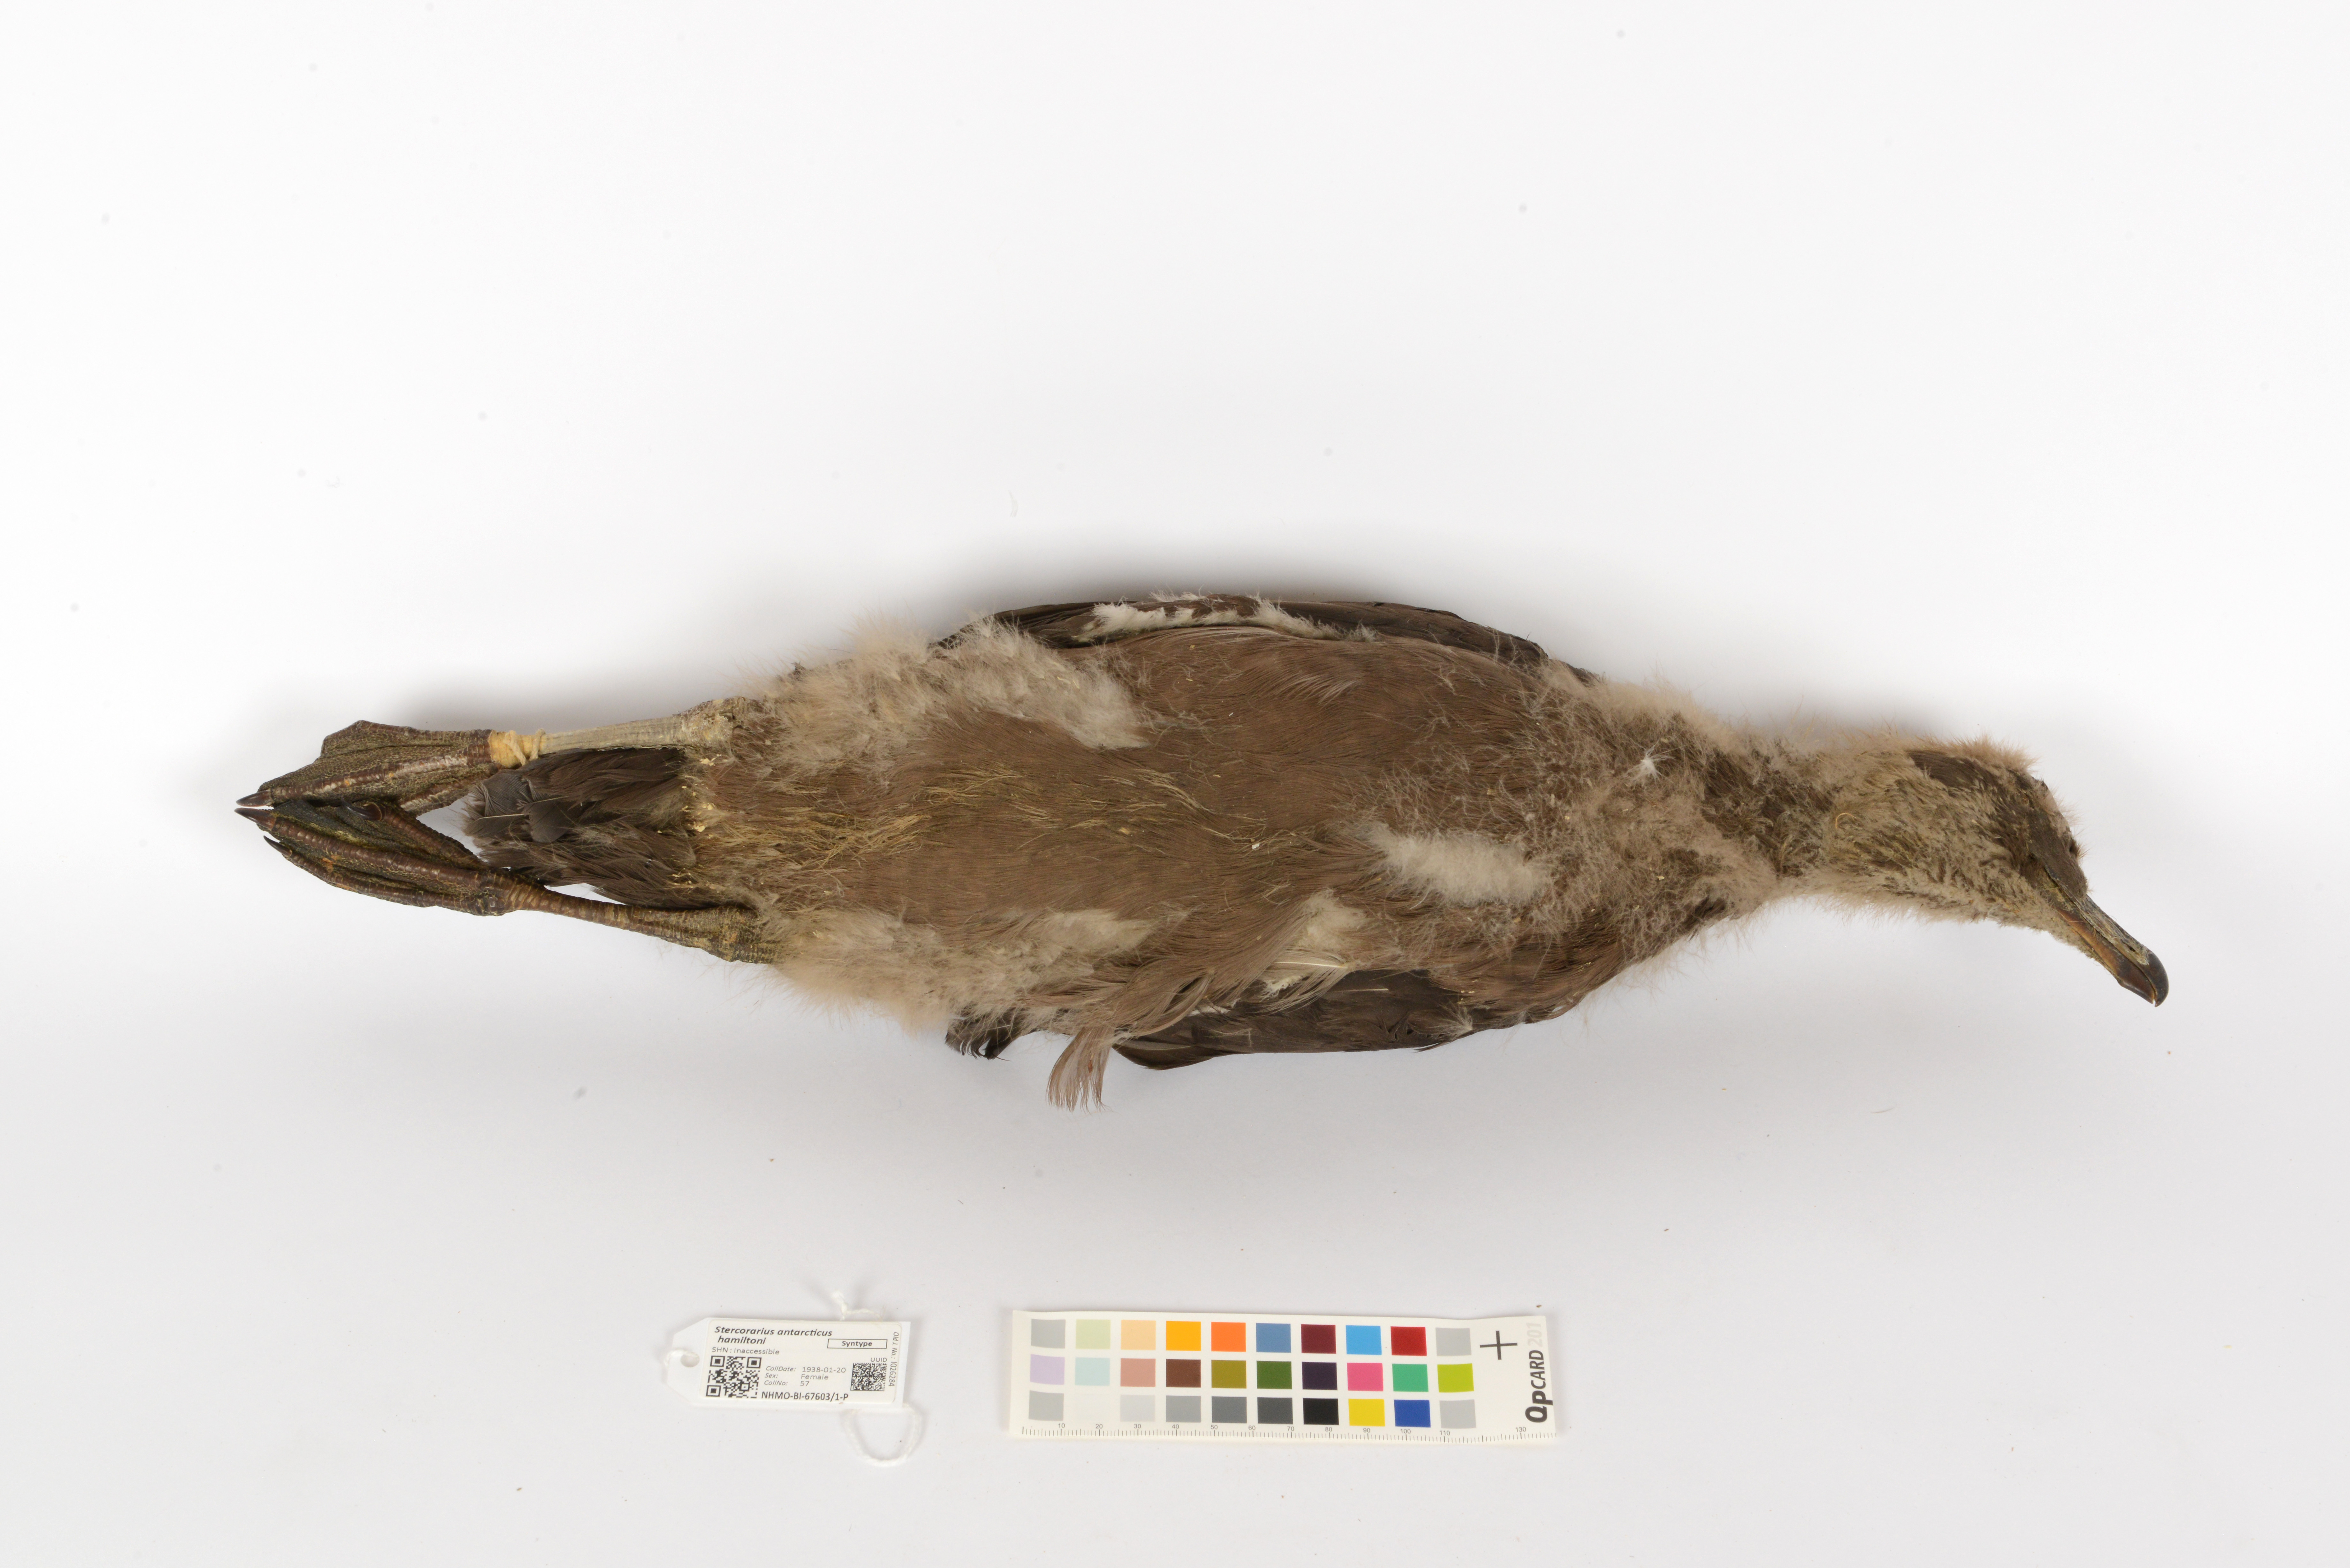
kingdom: Animalia
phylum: Chordata
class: Aves
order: Charadriiformes
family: Stercorariidae
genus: Stercorarius
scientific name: Stercorarius antarcticus
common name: Brown skua
